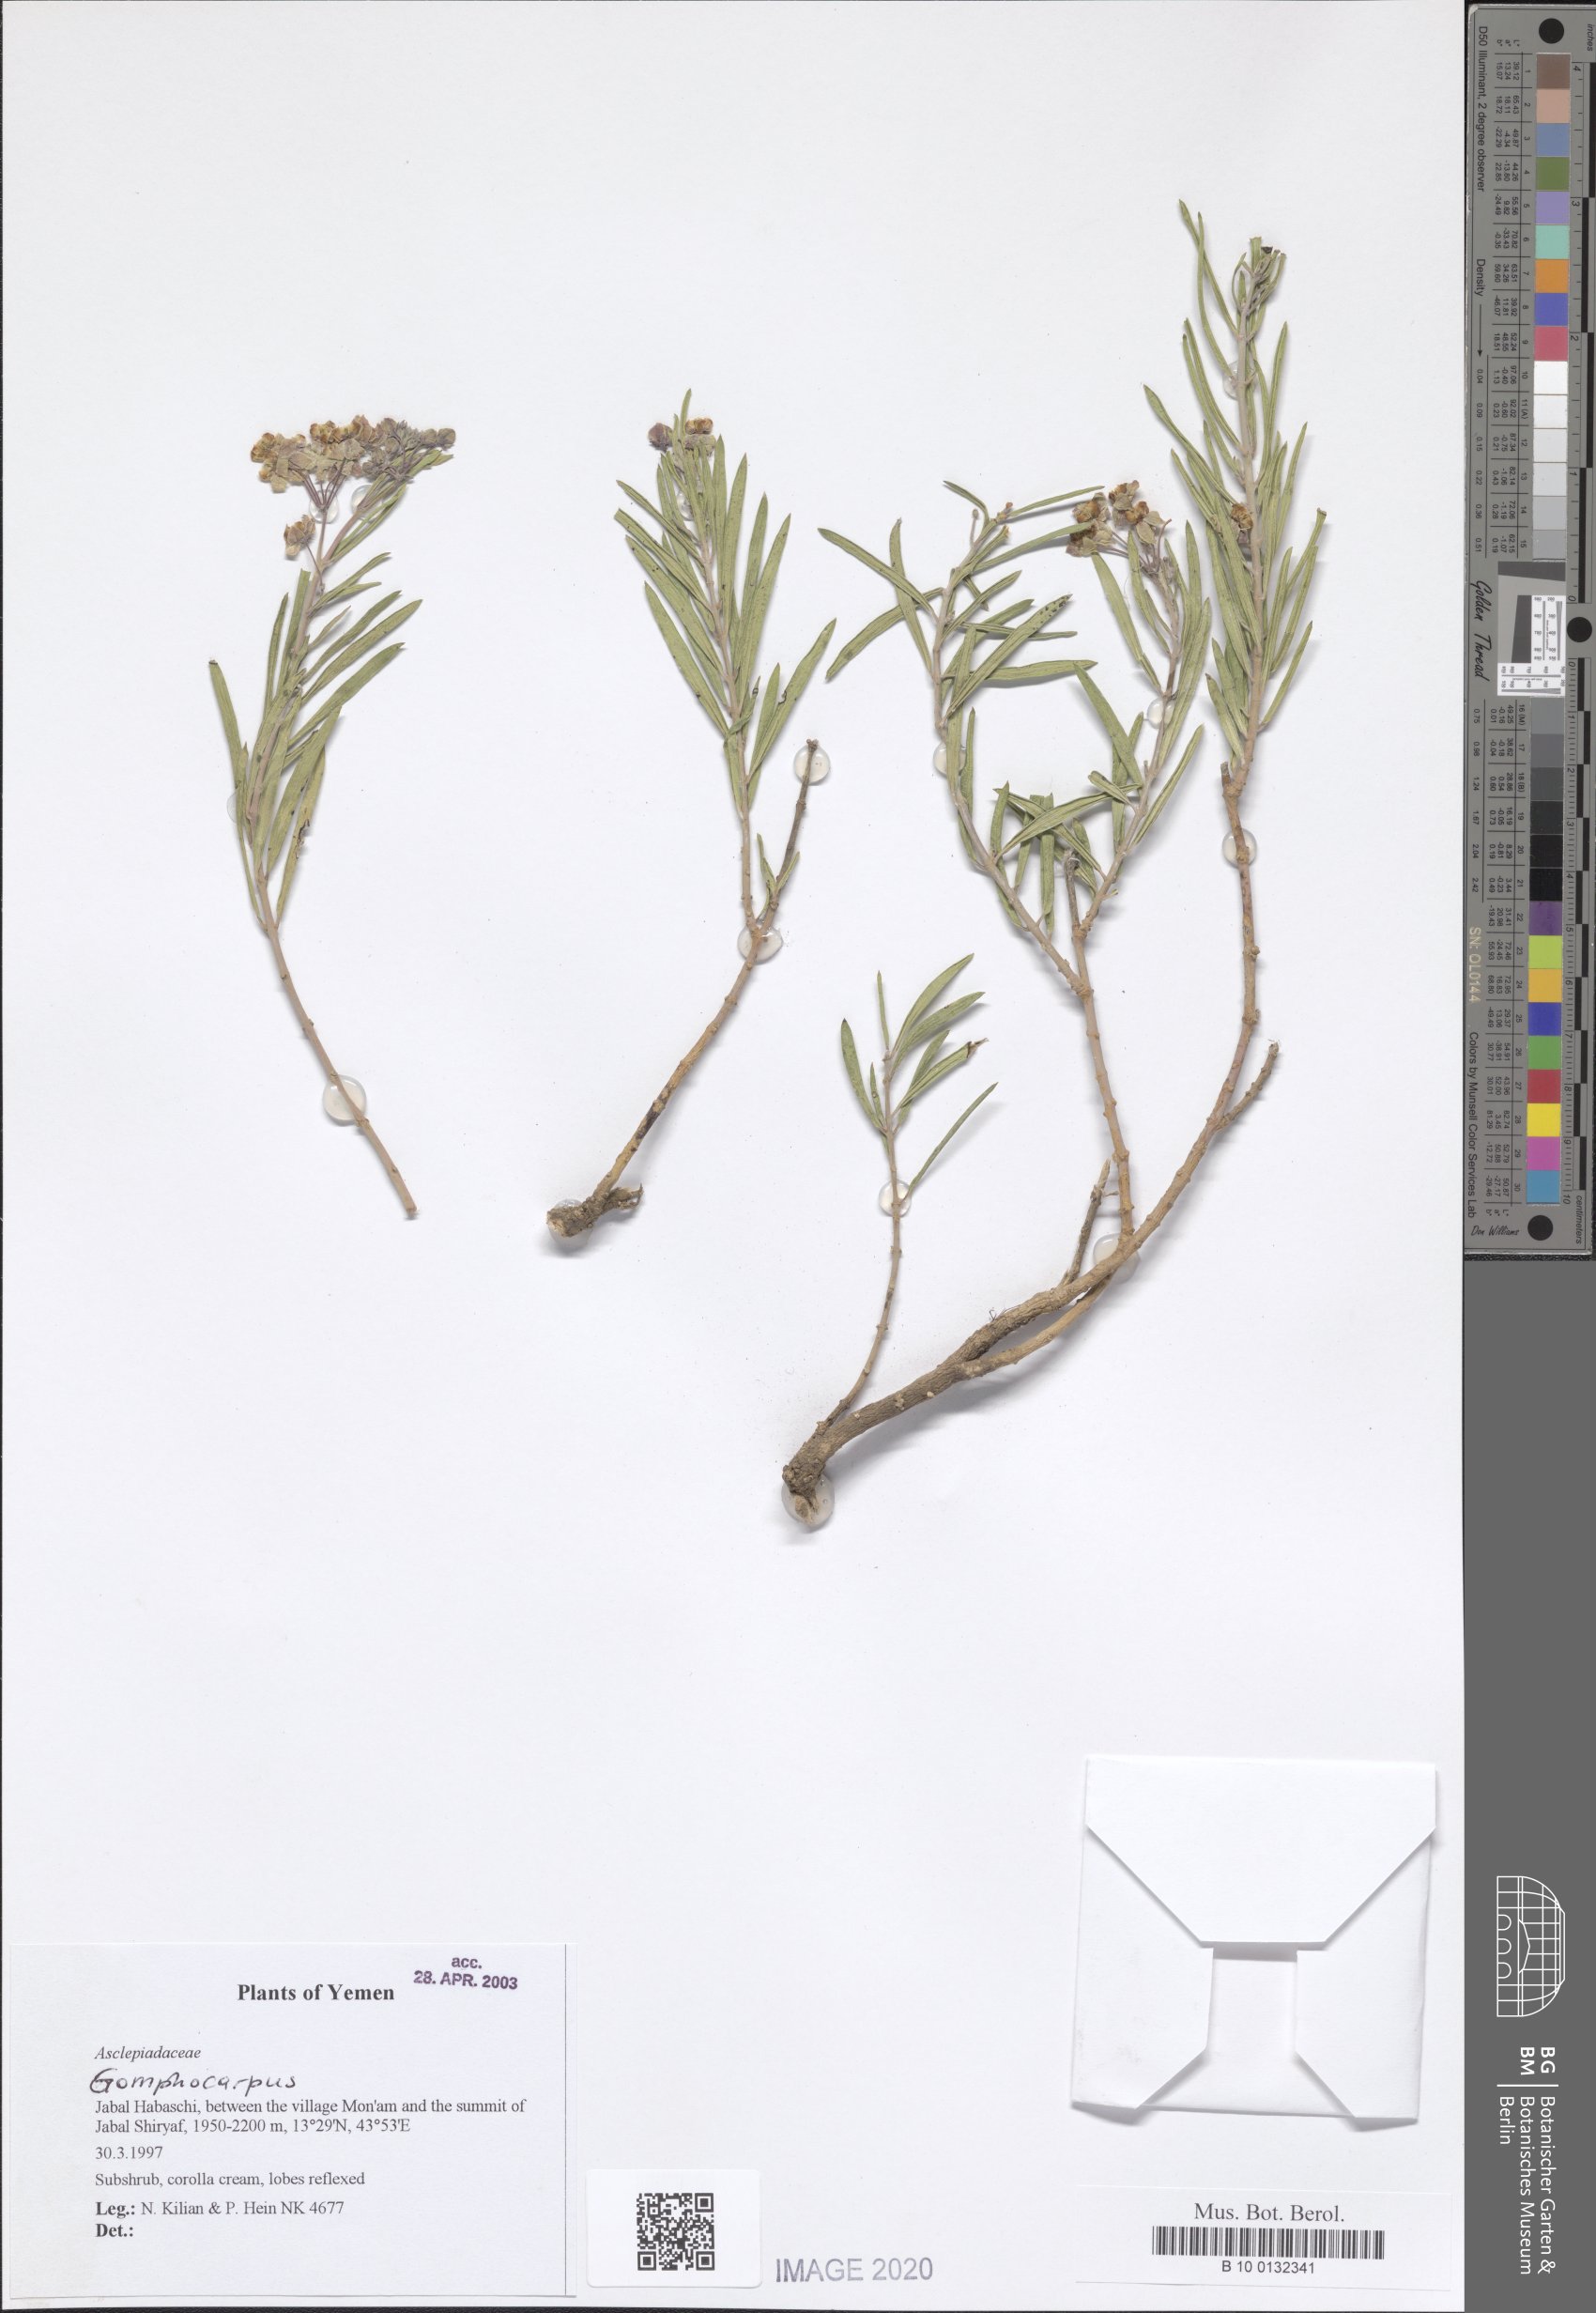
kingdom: Plantae
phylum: Tracheophyta
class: Magnoliopsida
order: Gentianales
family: Apocynaceae
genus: Gomphocarpus
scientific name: Gomphocarpus
